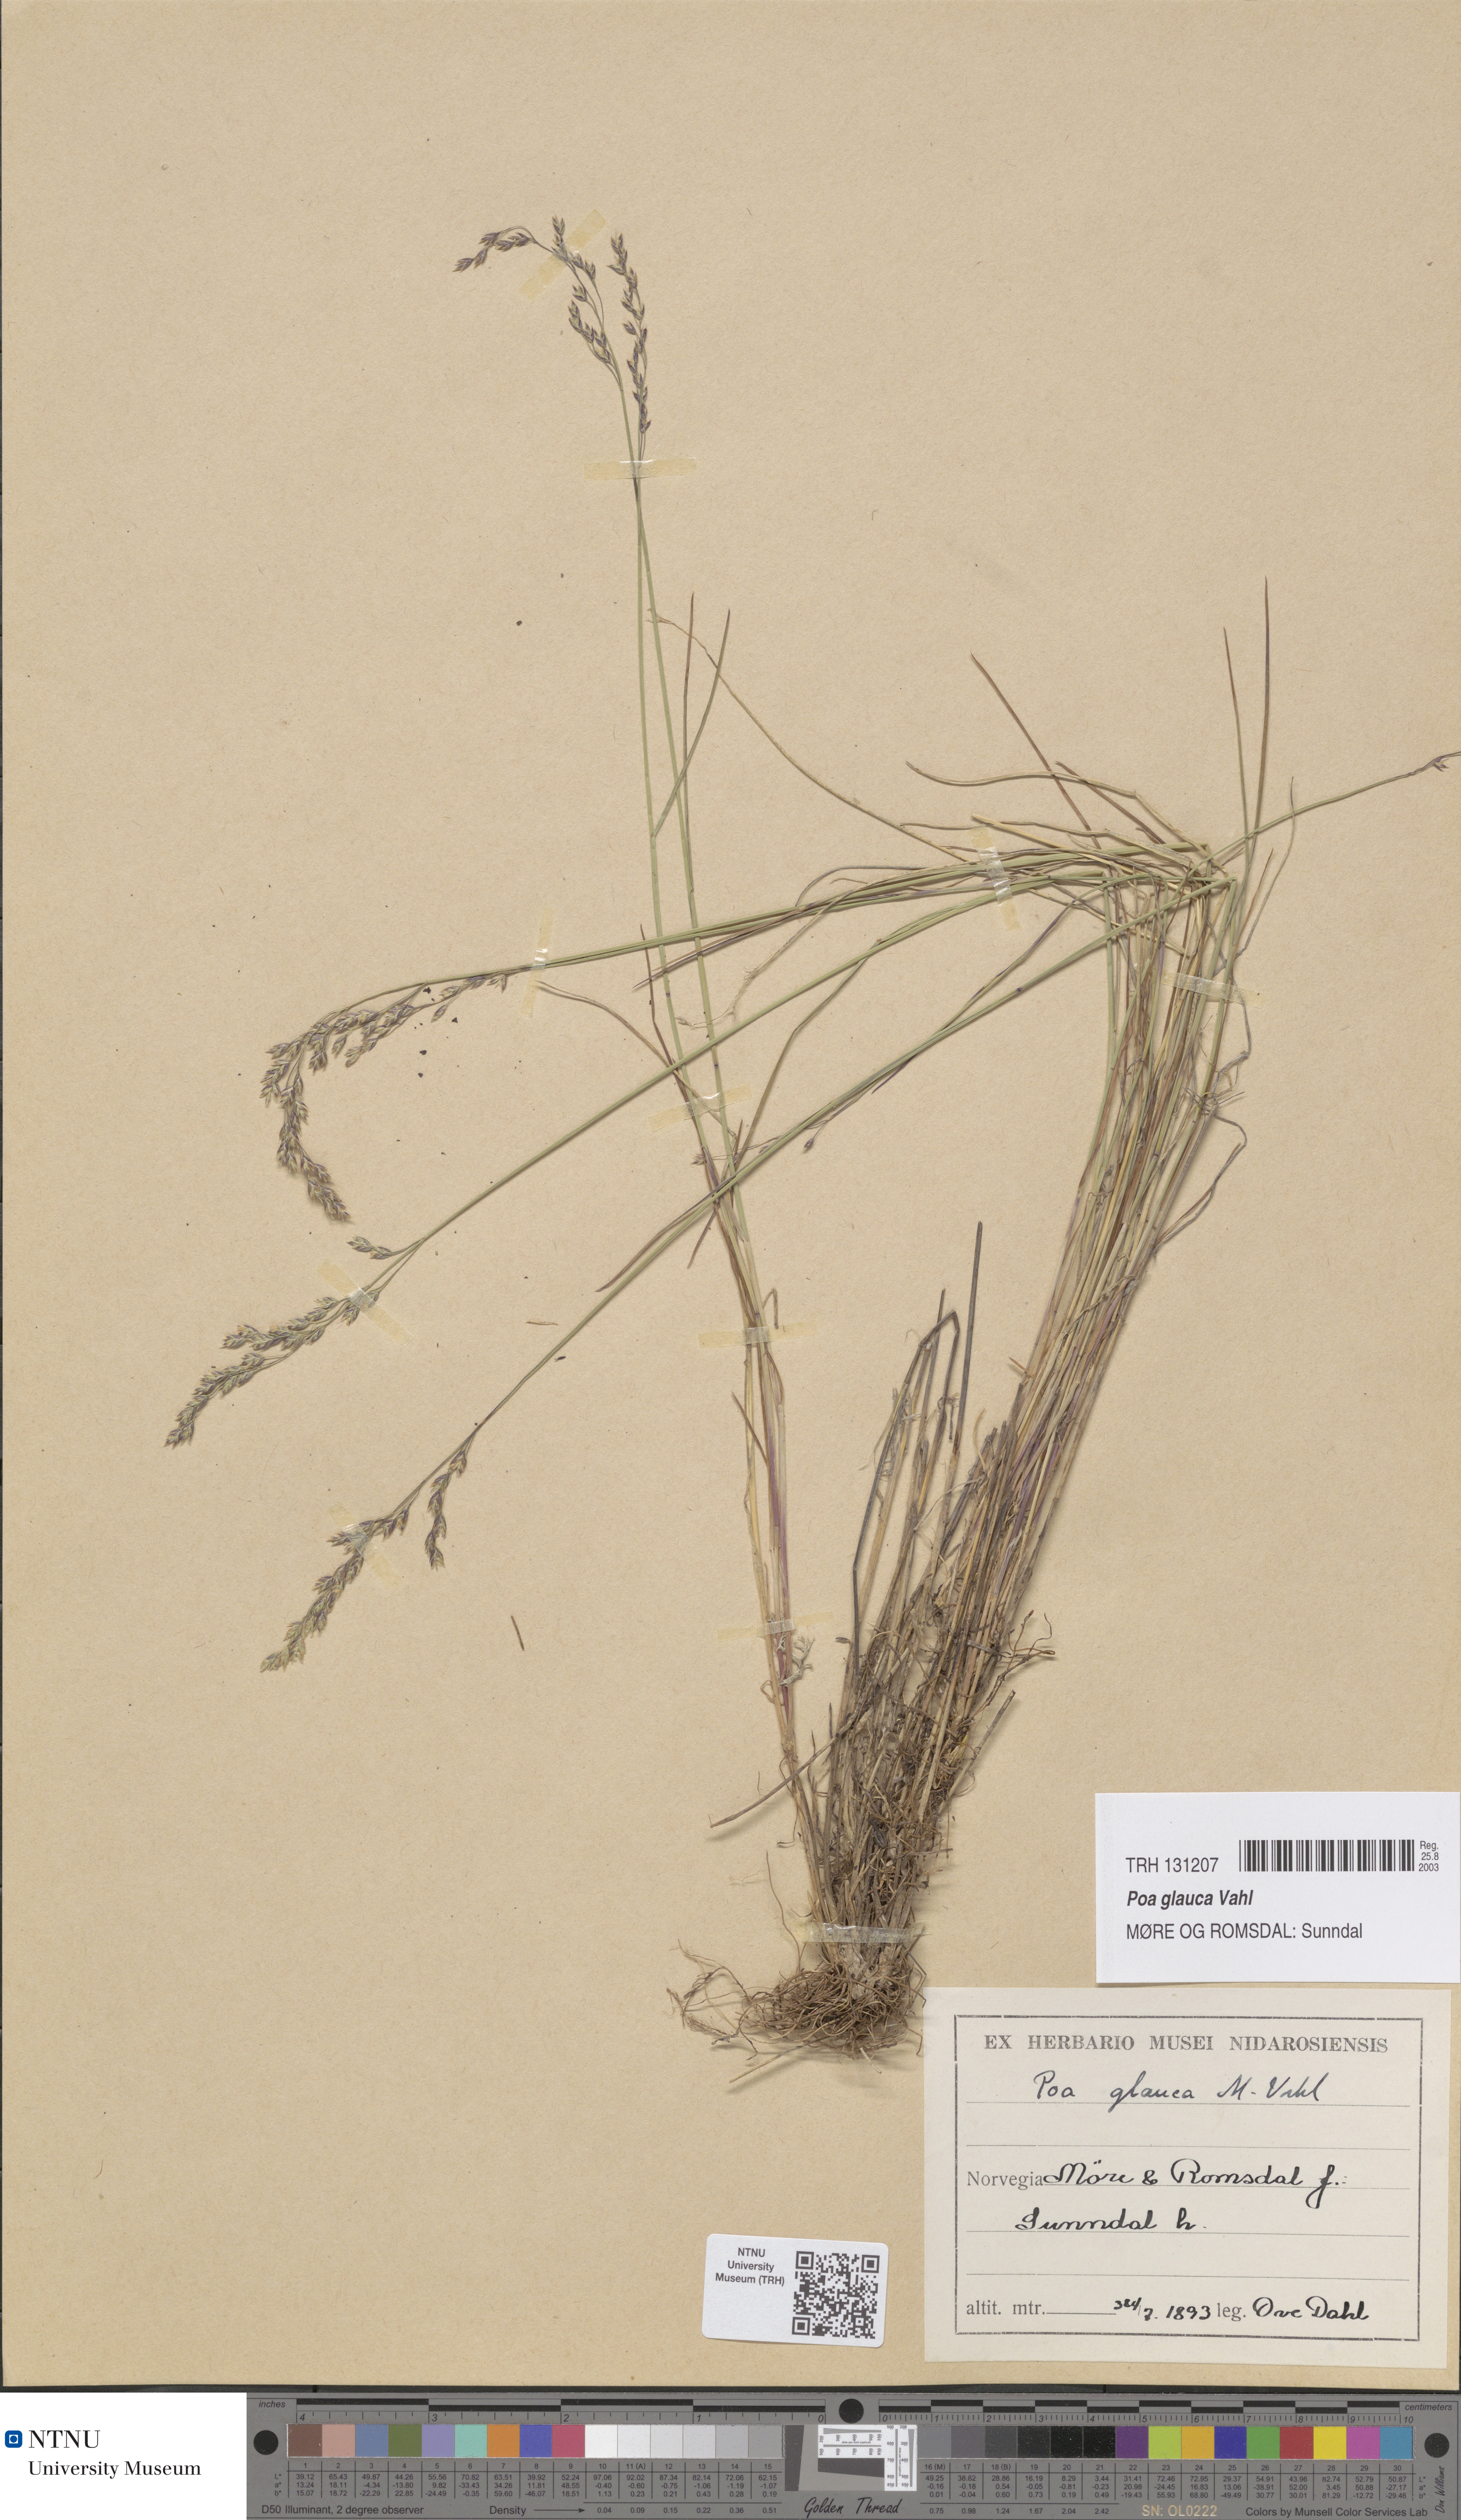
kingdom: Plantae
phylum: Tracheophyta
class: Liliopsida
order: Poales
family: Poaceae
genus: Poa
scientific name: Poa glauca
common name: Glaucous bluegrass
